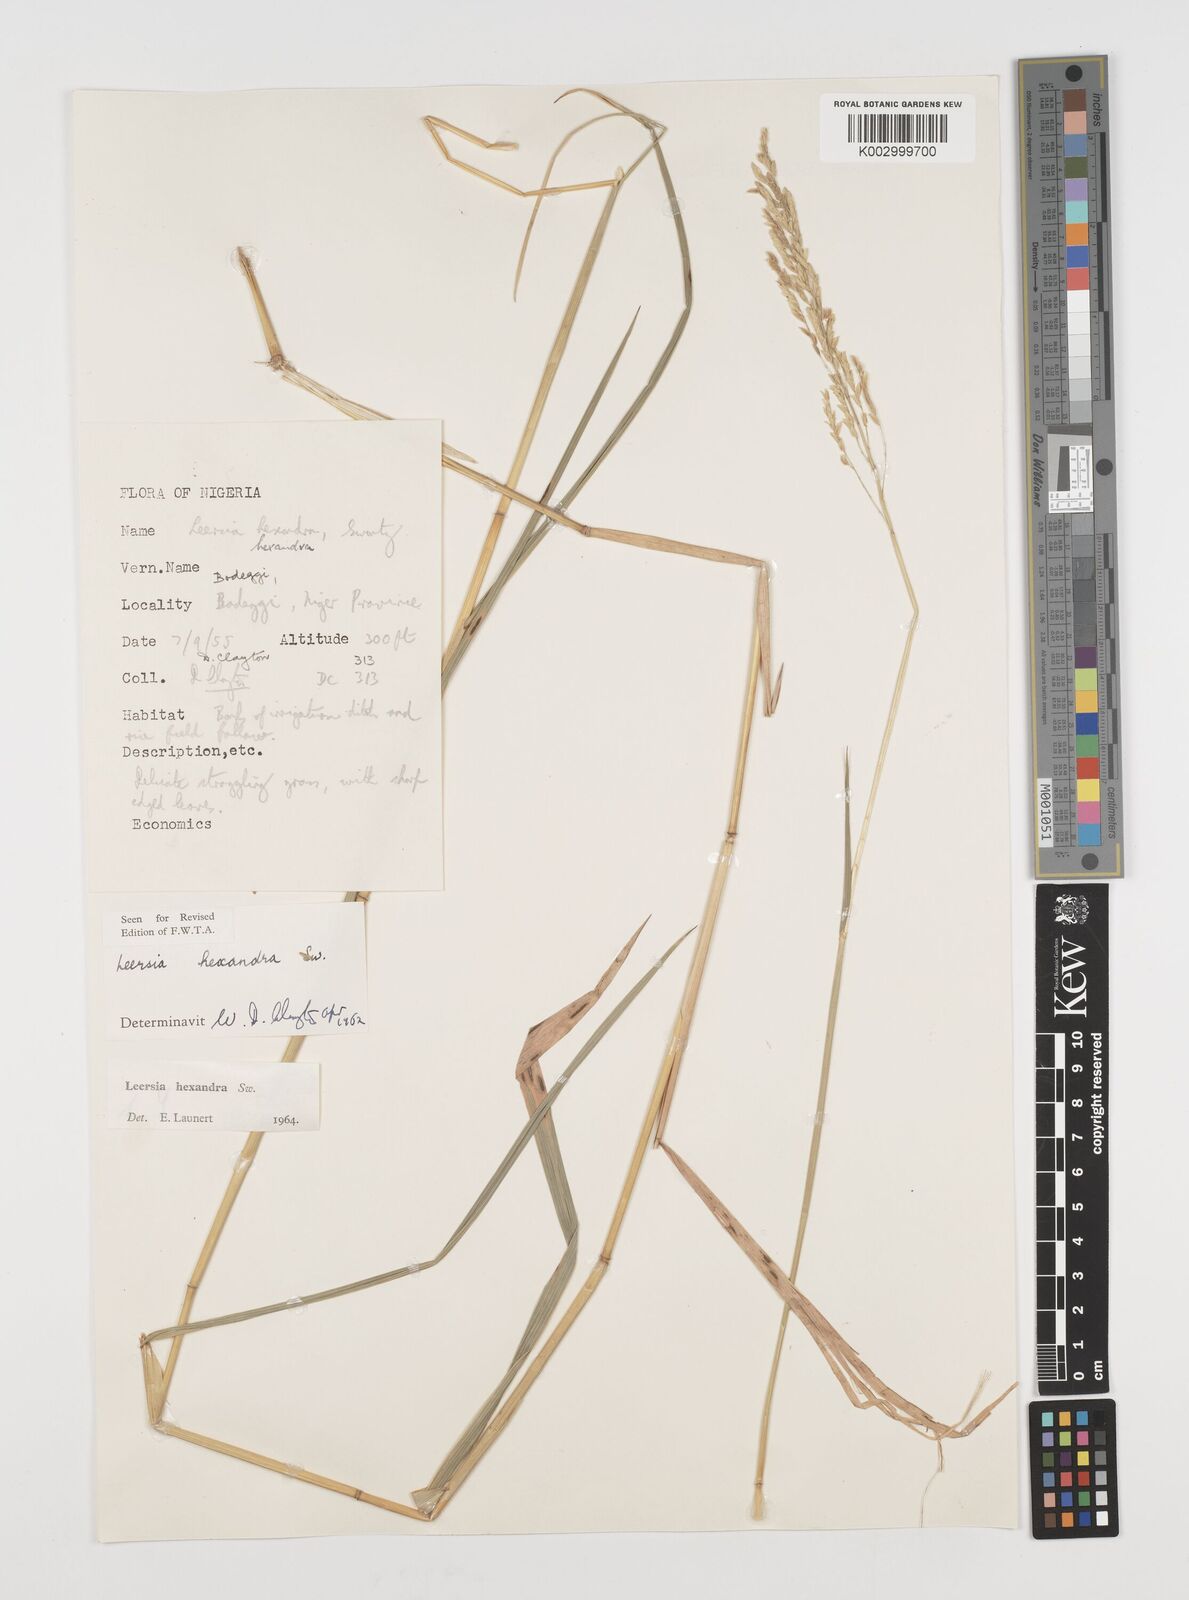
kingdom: Plantae
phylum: Tracheophyta
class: Liliopsida
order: Poales
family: Poaceae
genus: Leersia
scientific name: Leersia hexandra
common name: Southern cut grass
